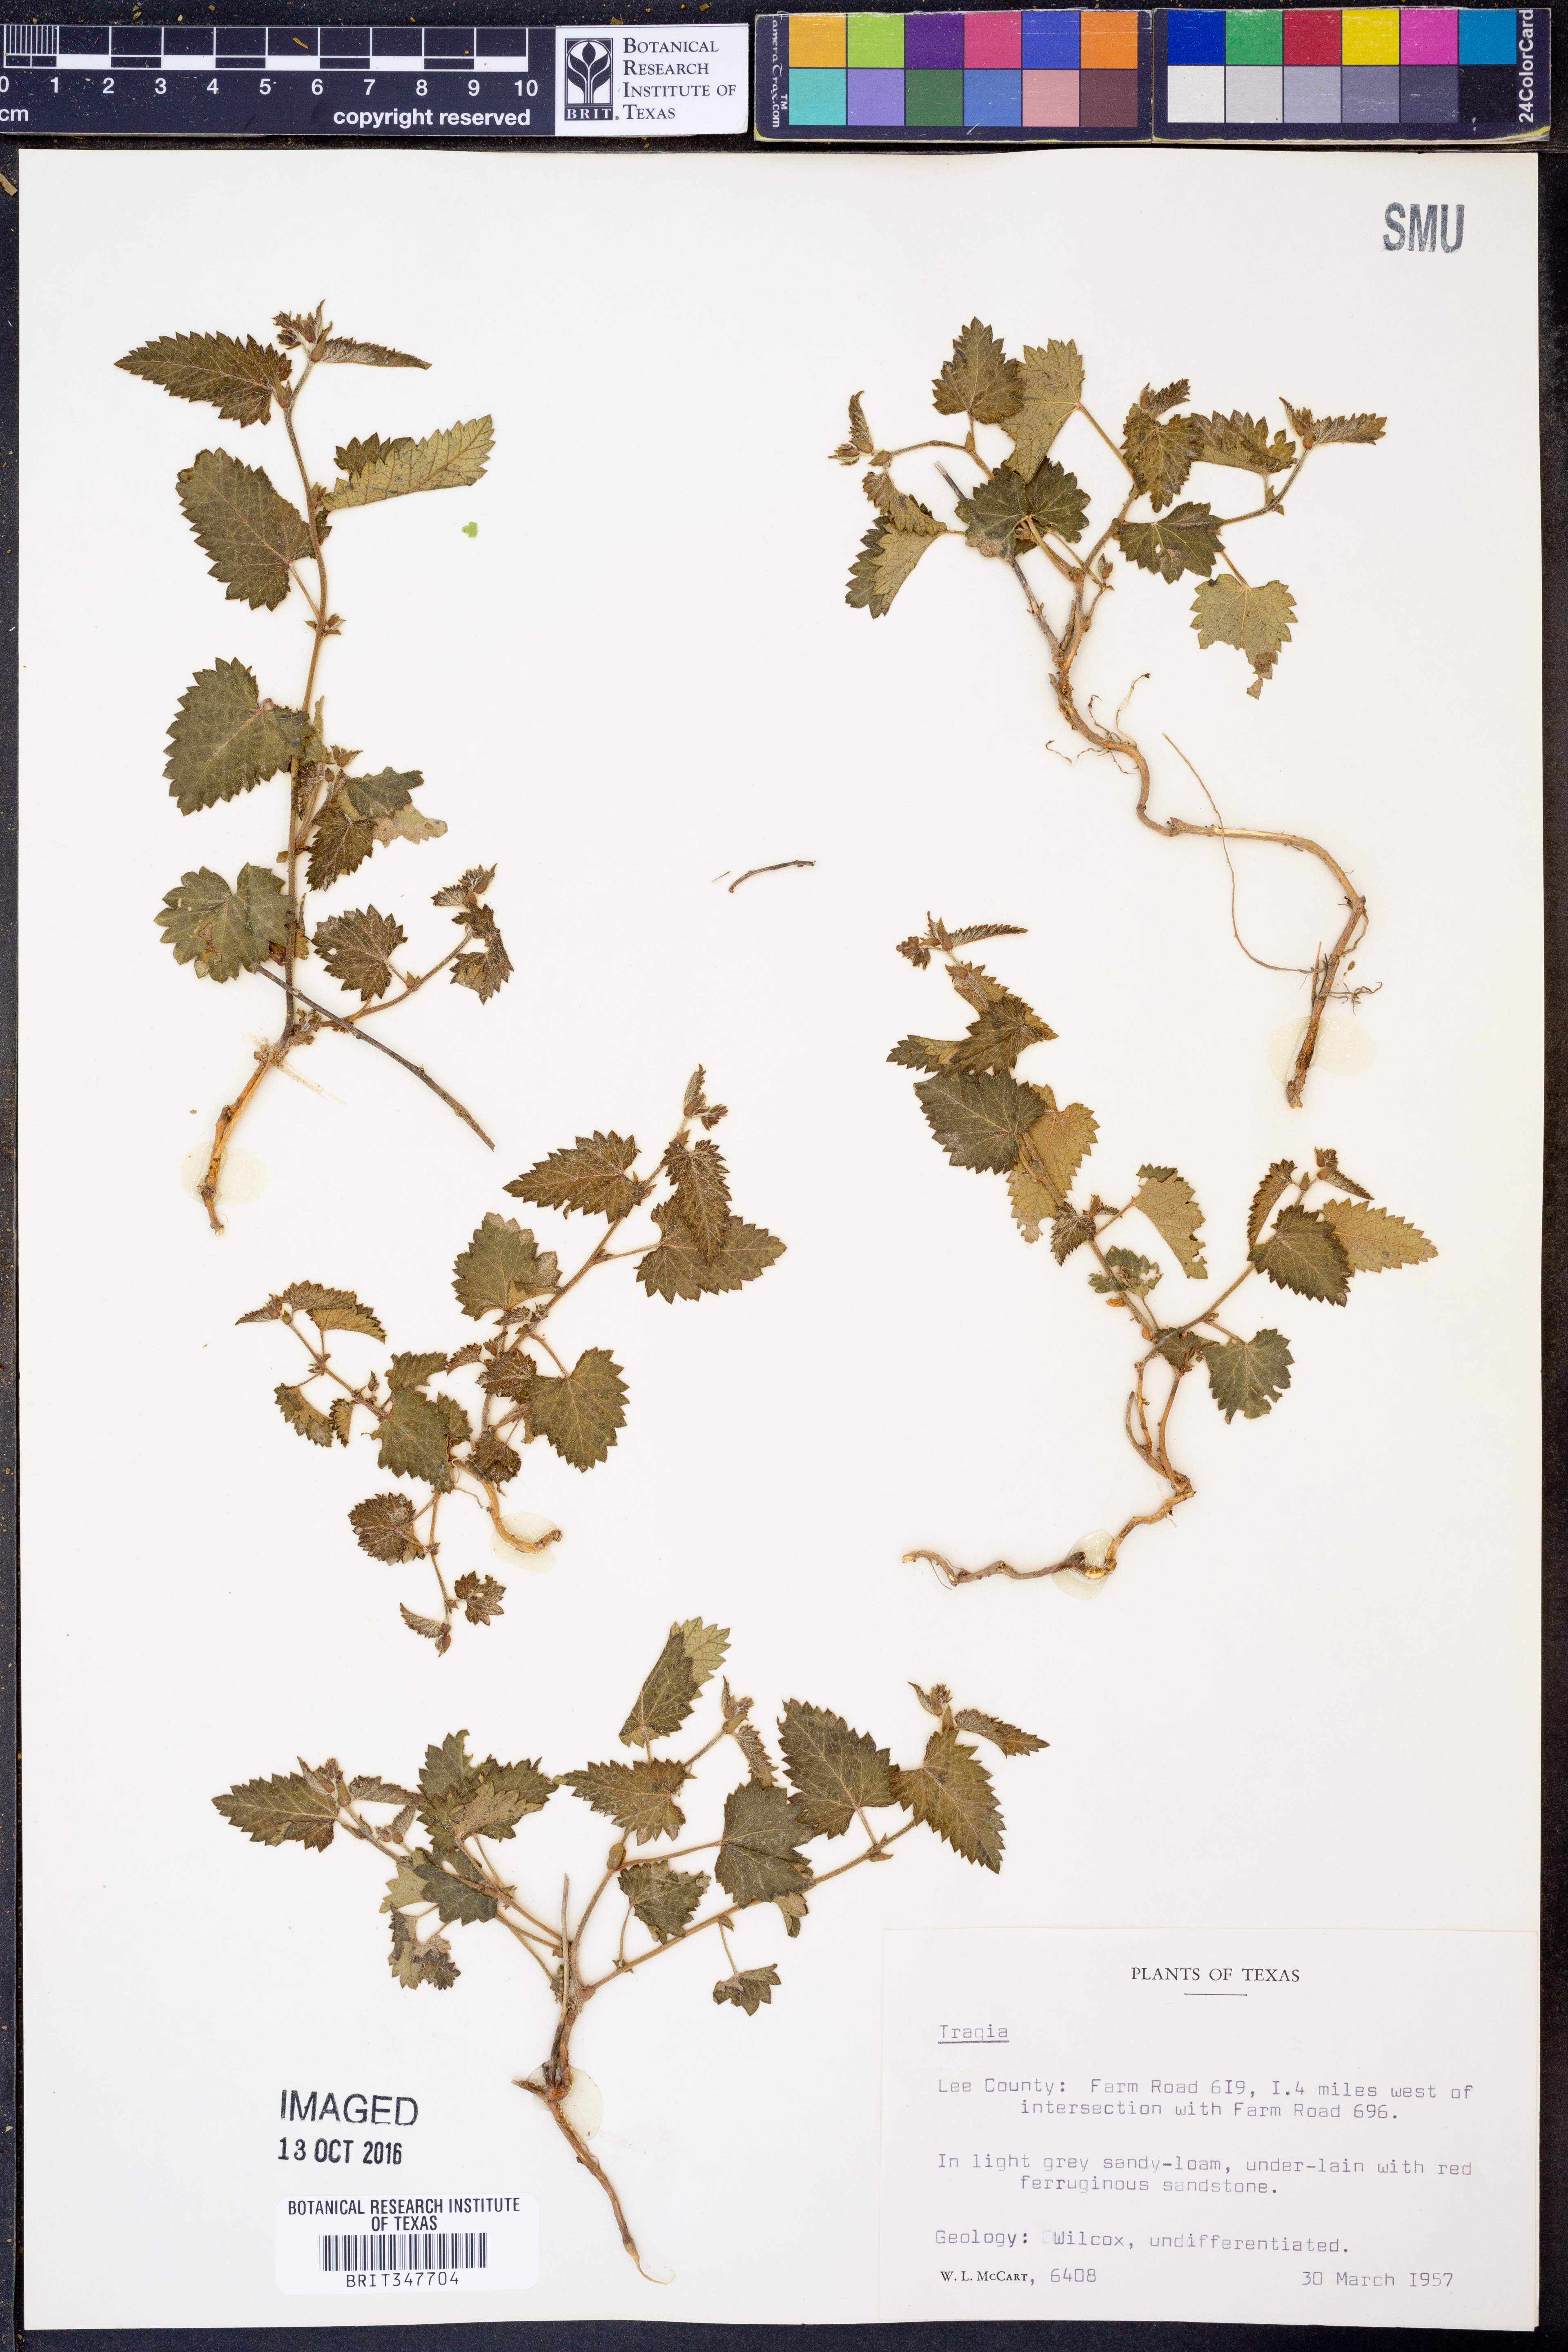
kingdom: Plantae
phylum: Tracheophyta
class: Magnoliopsida
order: Malpighiales
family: Euphorbiaceae
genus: Tragia
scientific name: Tragia
